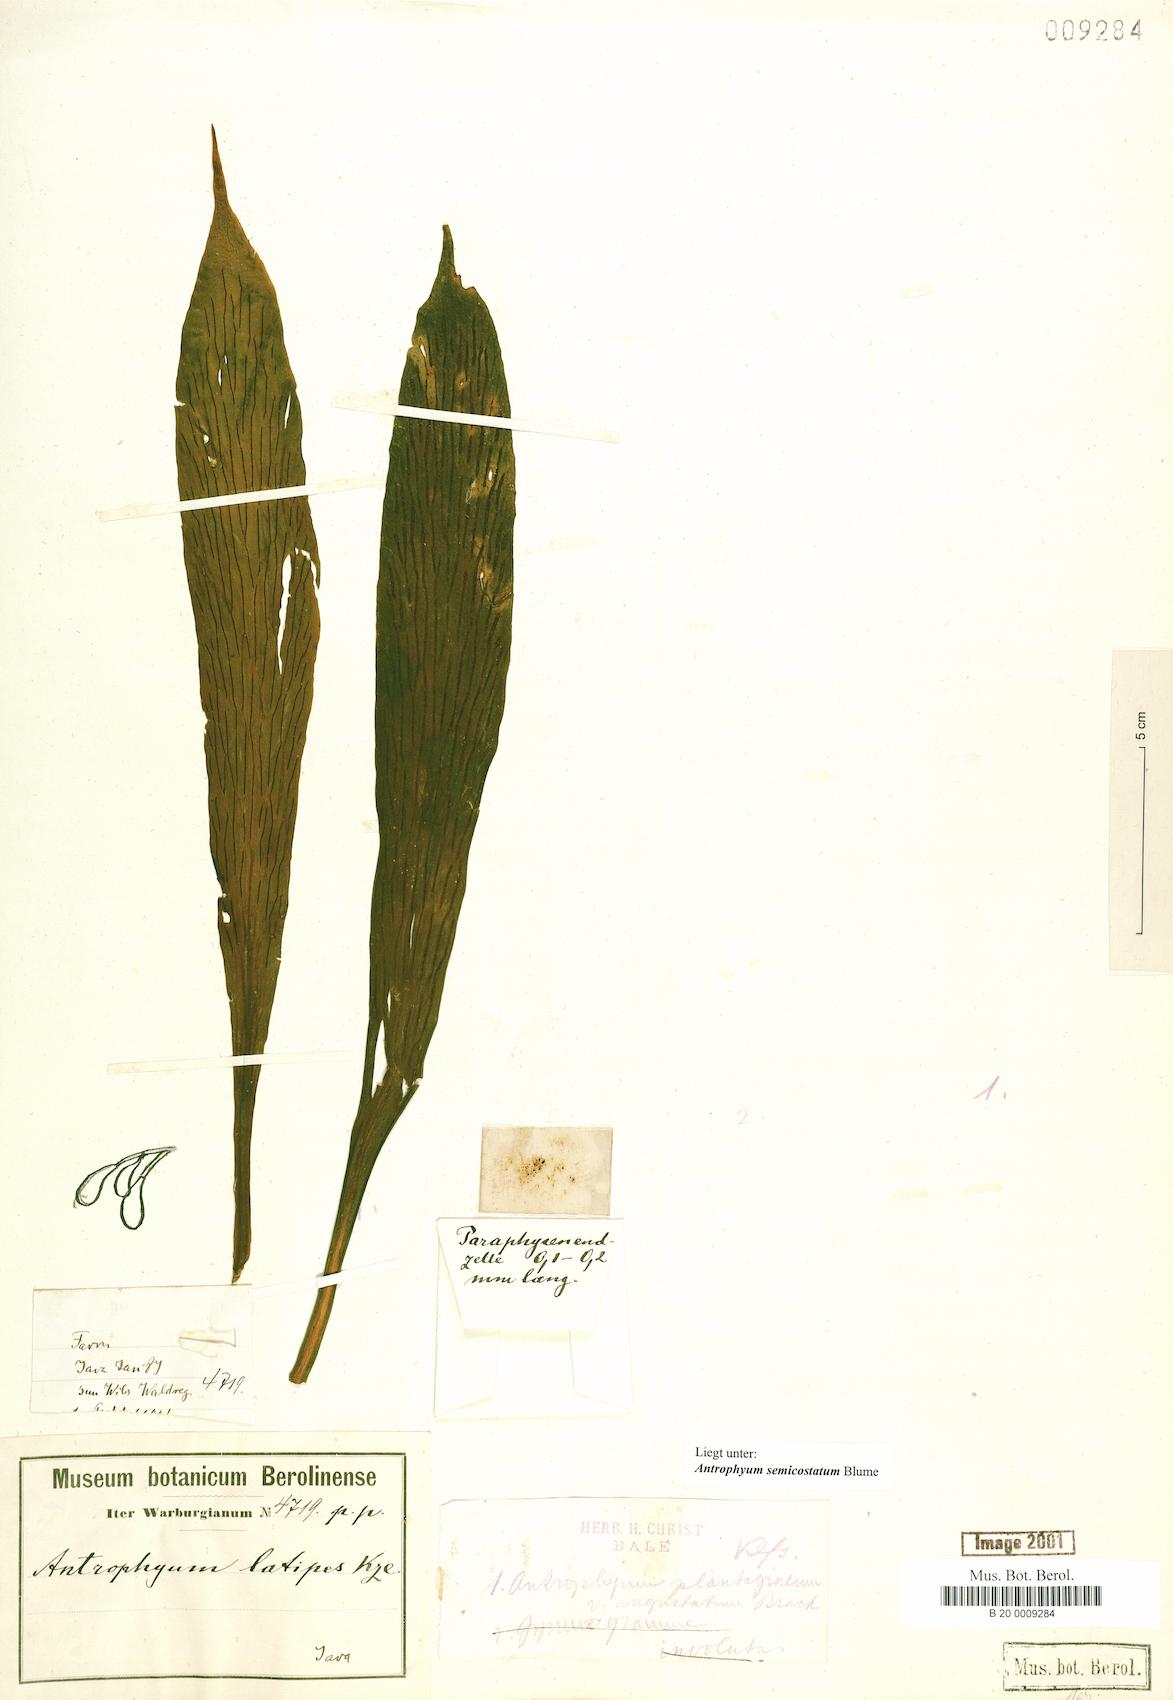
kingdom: Plantae
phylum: Tracheophyta
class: Polypodiopsida
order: Polypodiales
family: Pteridaceae
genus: Antrophyum
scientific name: Antrophyum semicostatum
